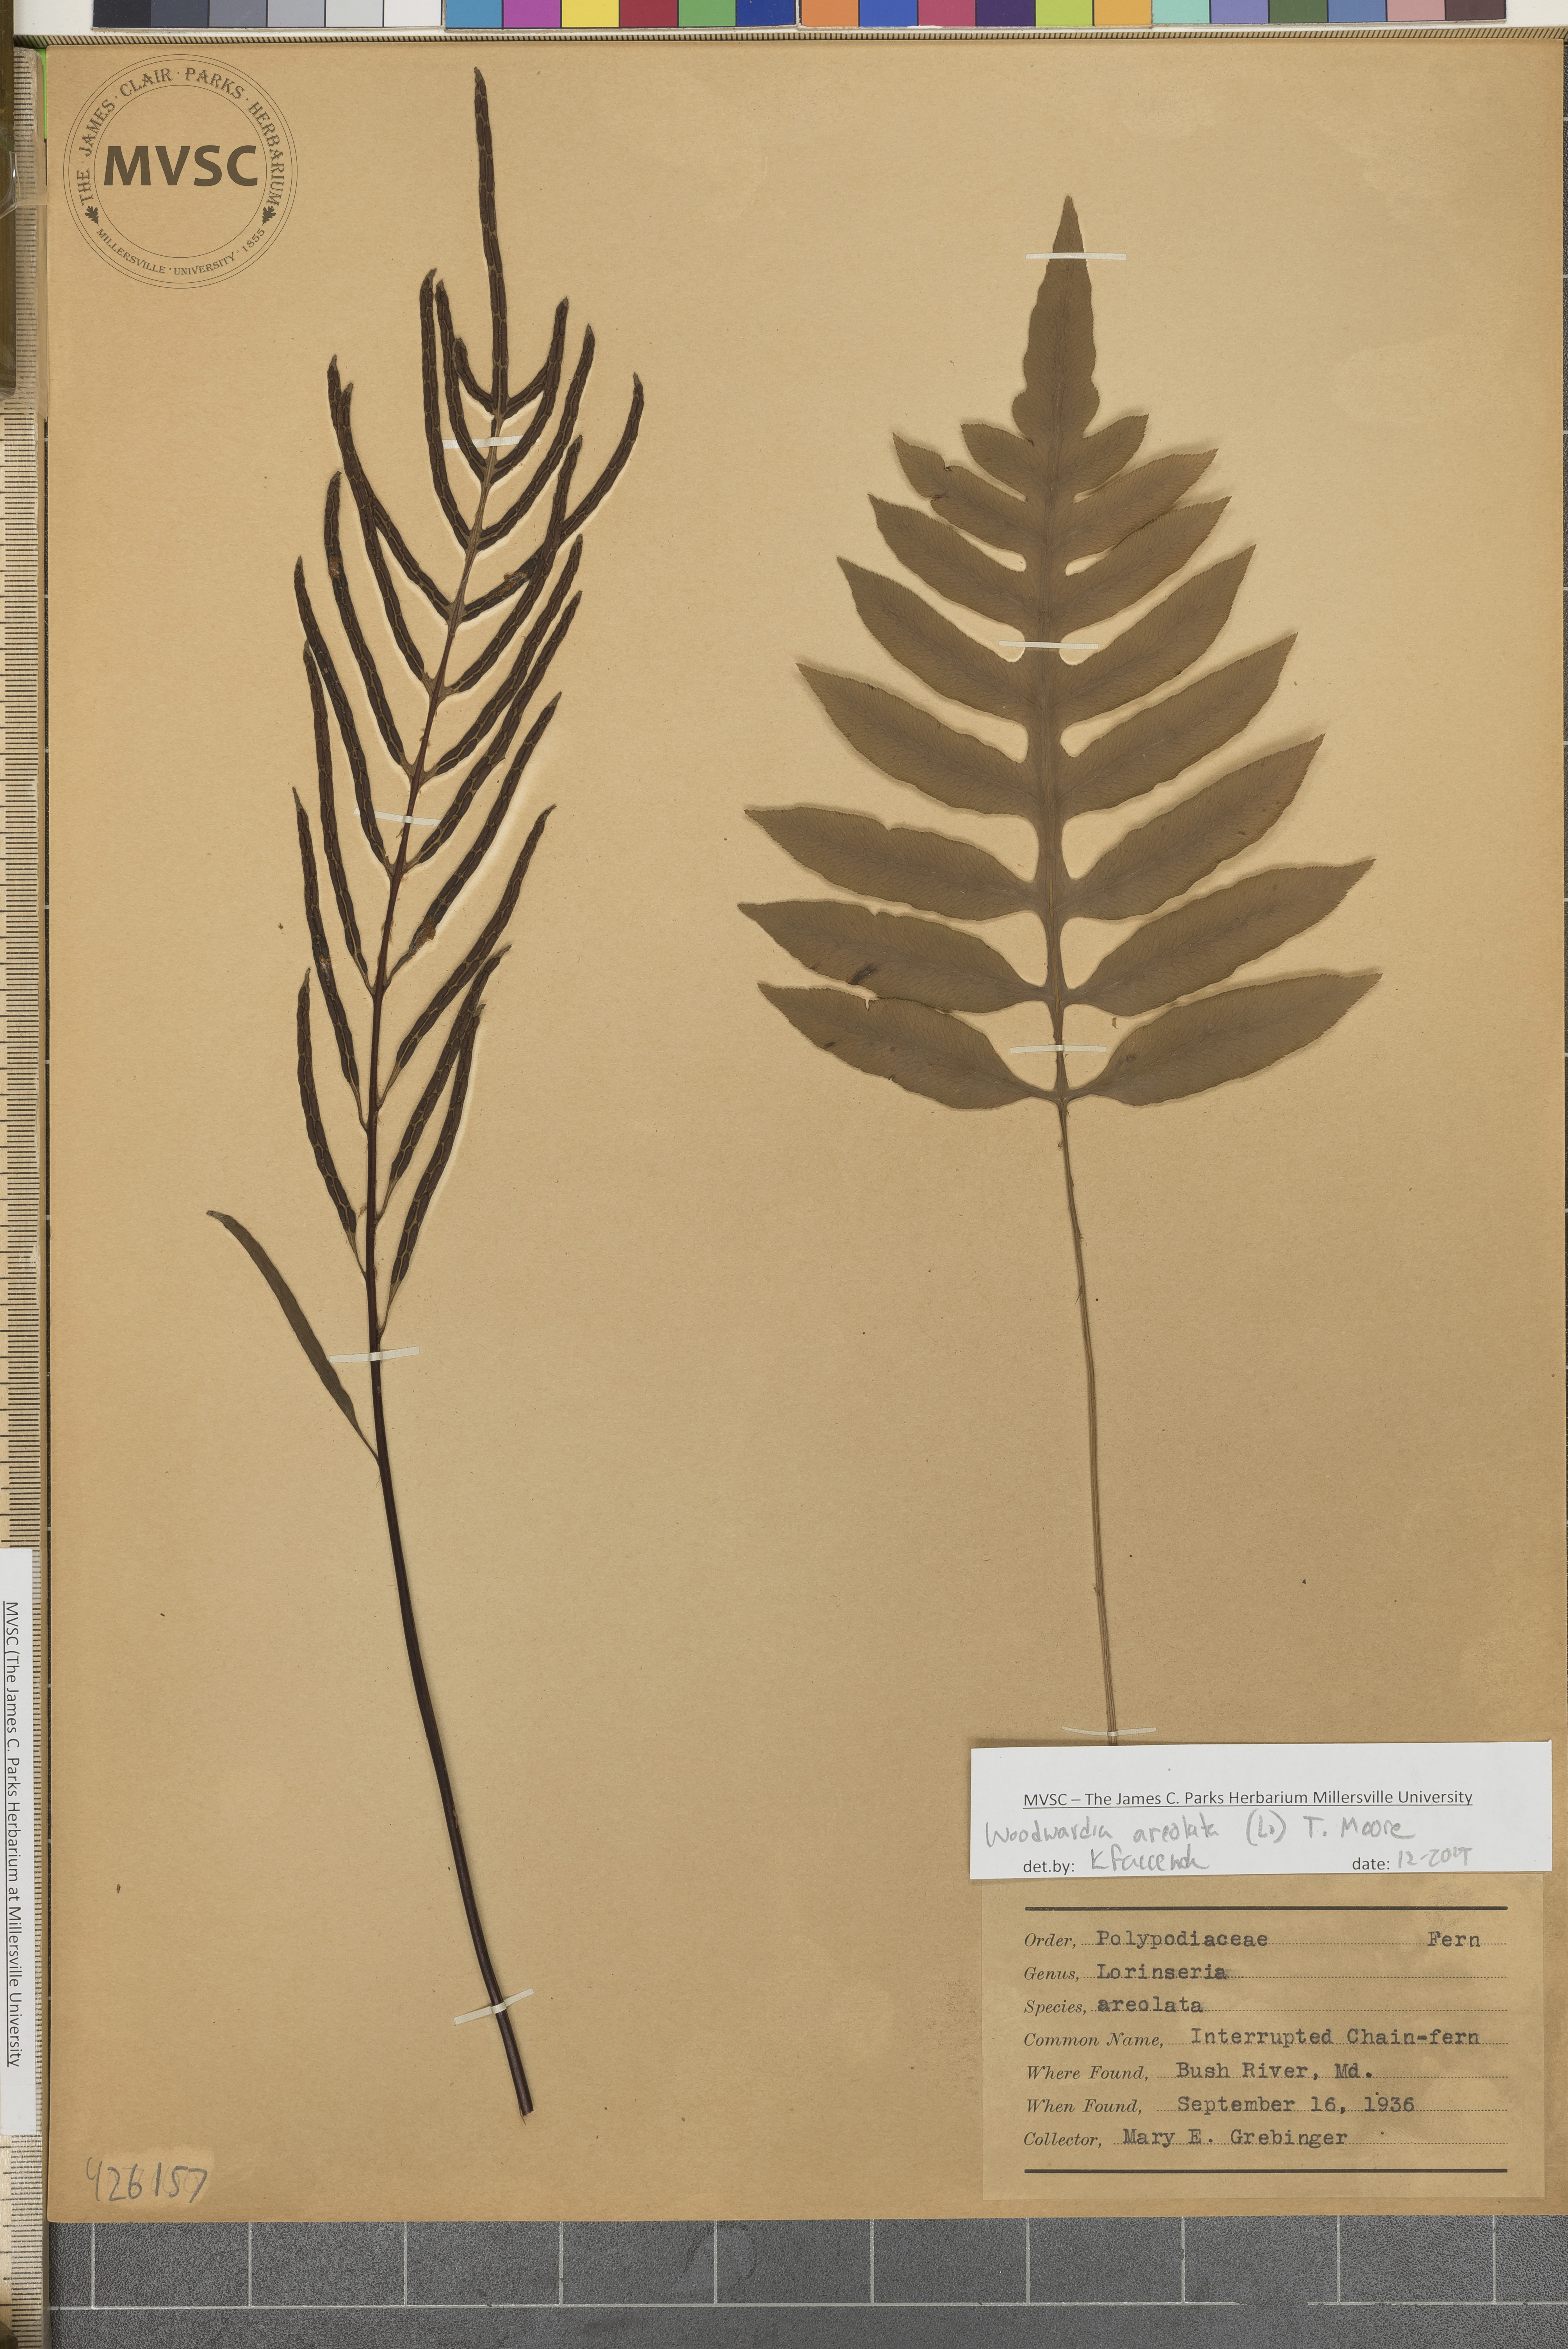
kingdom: Plantae
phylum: Tracheophyta
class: Polypodiopsida
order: Polypodiales
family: Blechnaceae
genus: Lorinseria
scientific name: Lorinseria areolata
